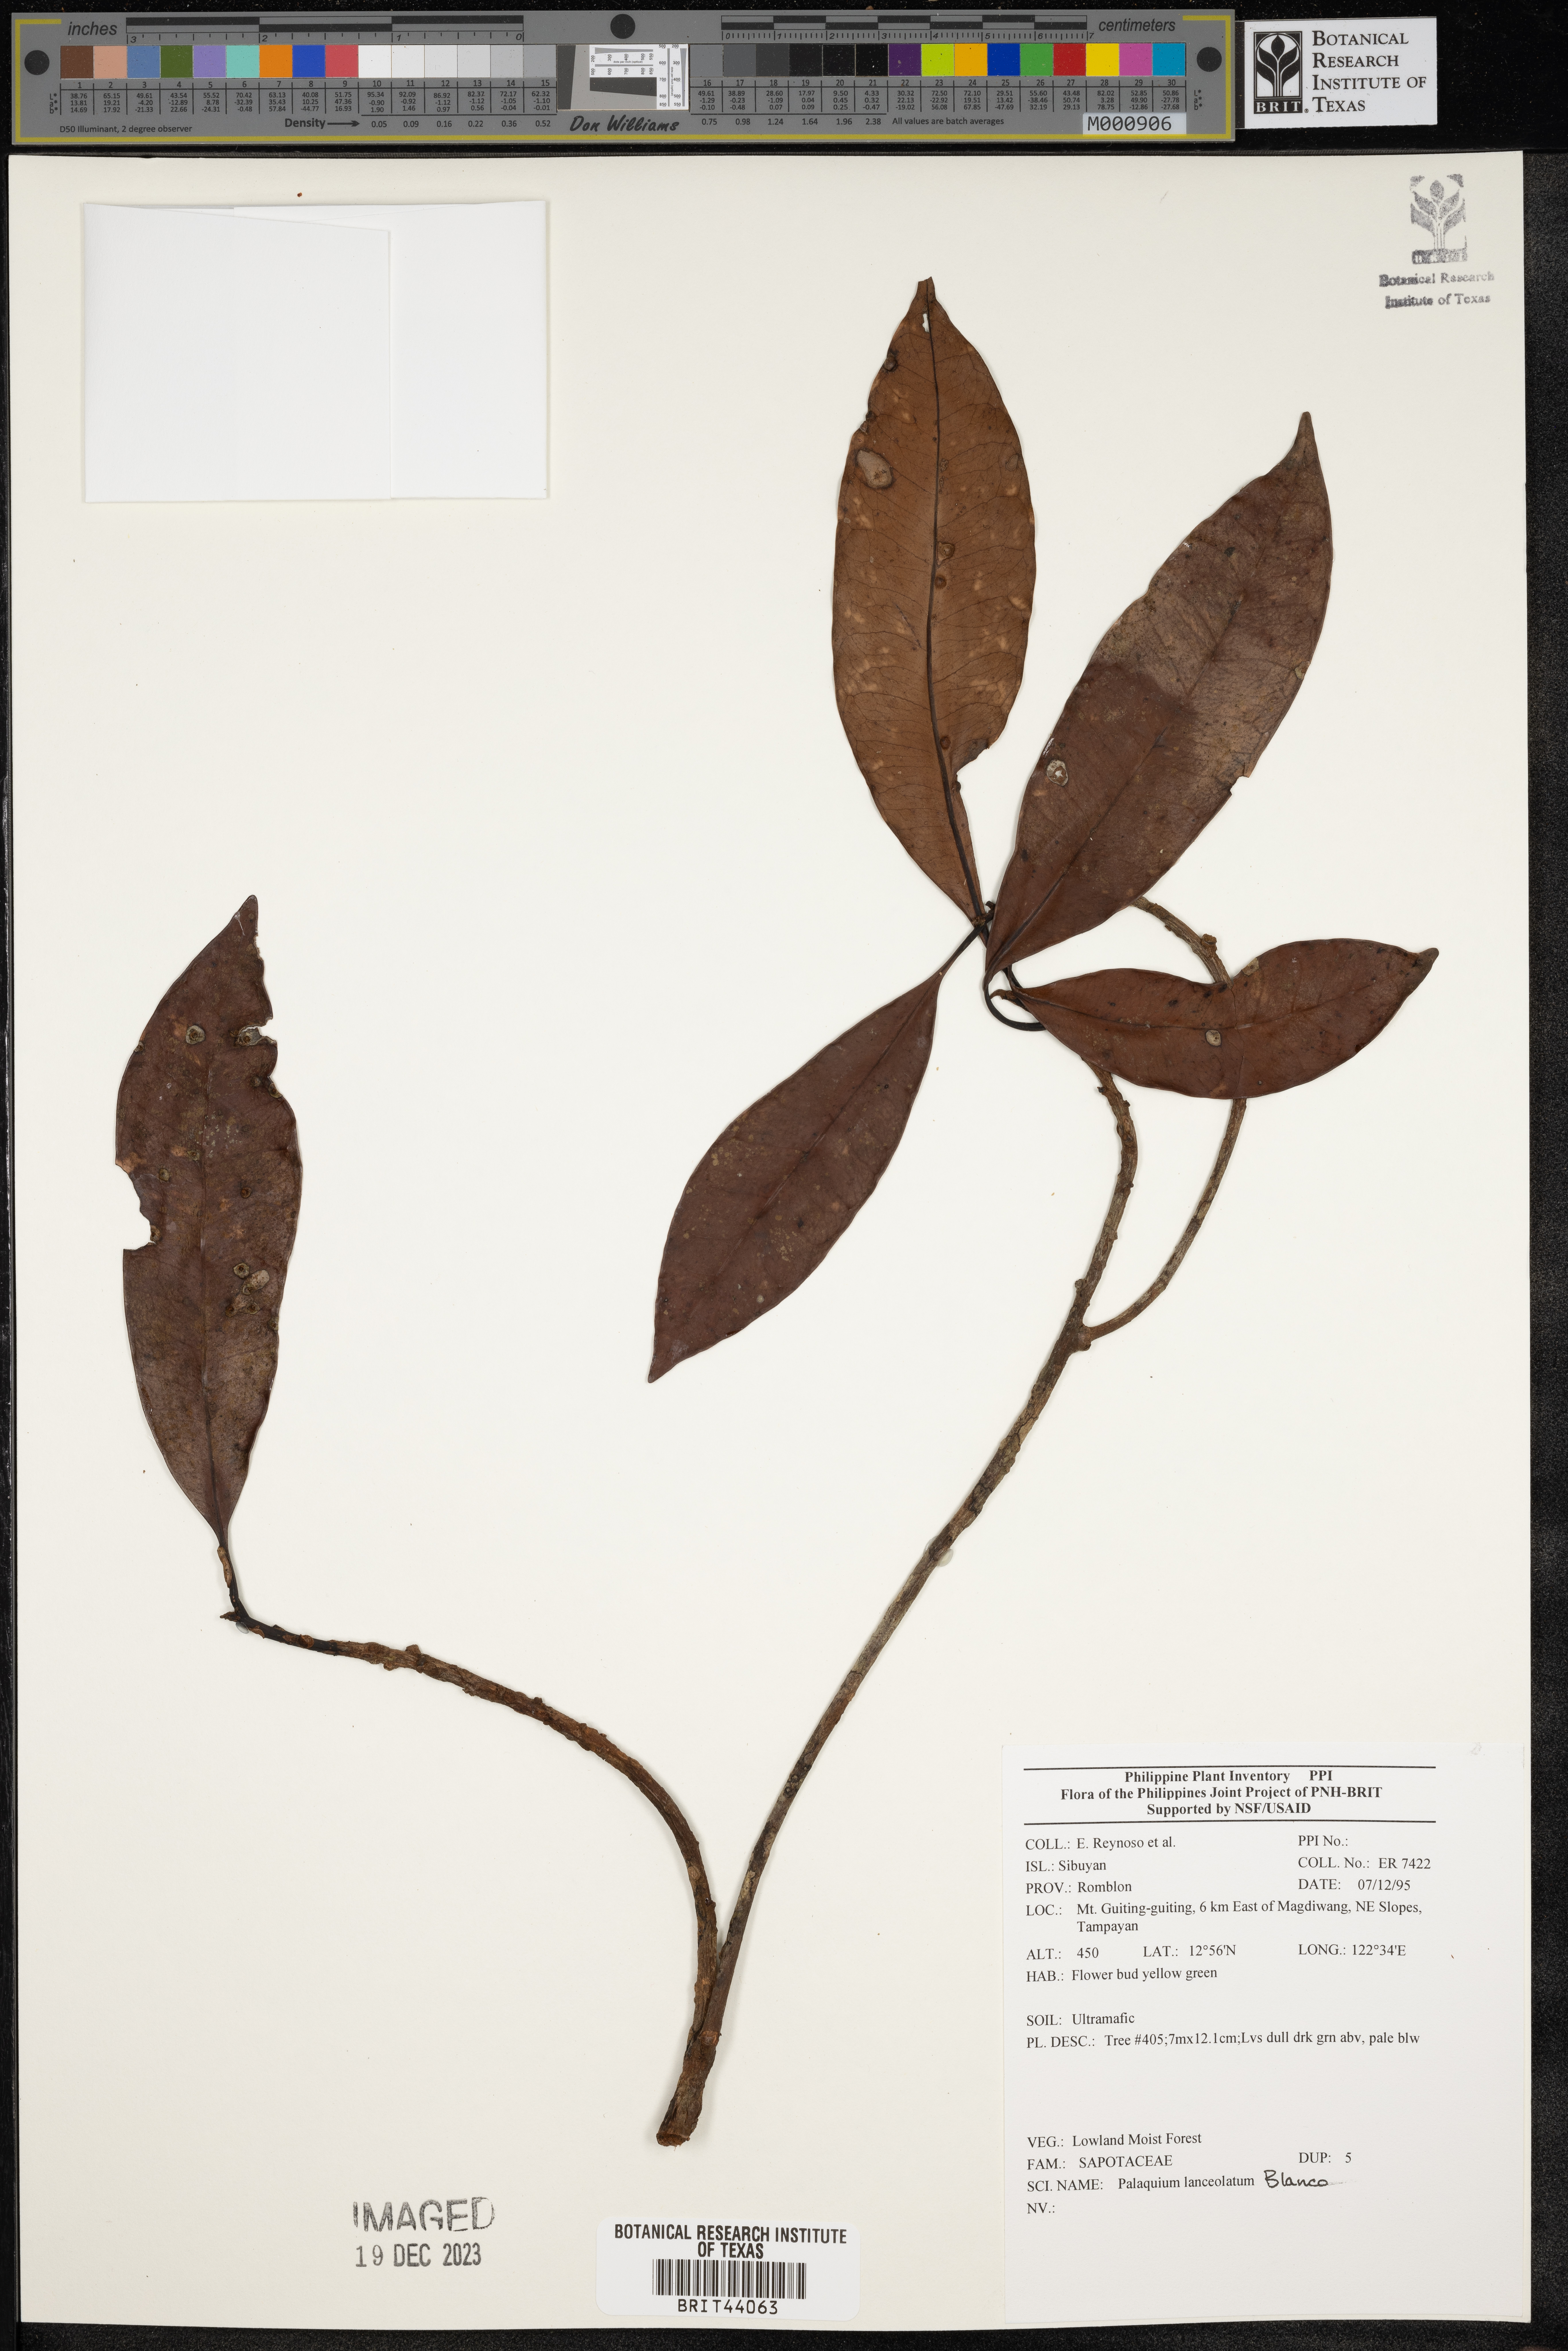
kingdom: Plantae
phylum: Tracheophyta
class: Magnoliopsida
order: Ericales
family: Sapotaceae
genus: Palaquium
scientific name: Palaquium lanceolatum
